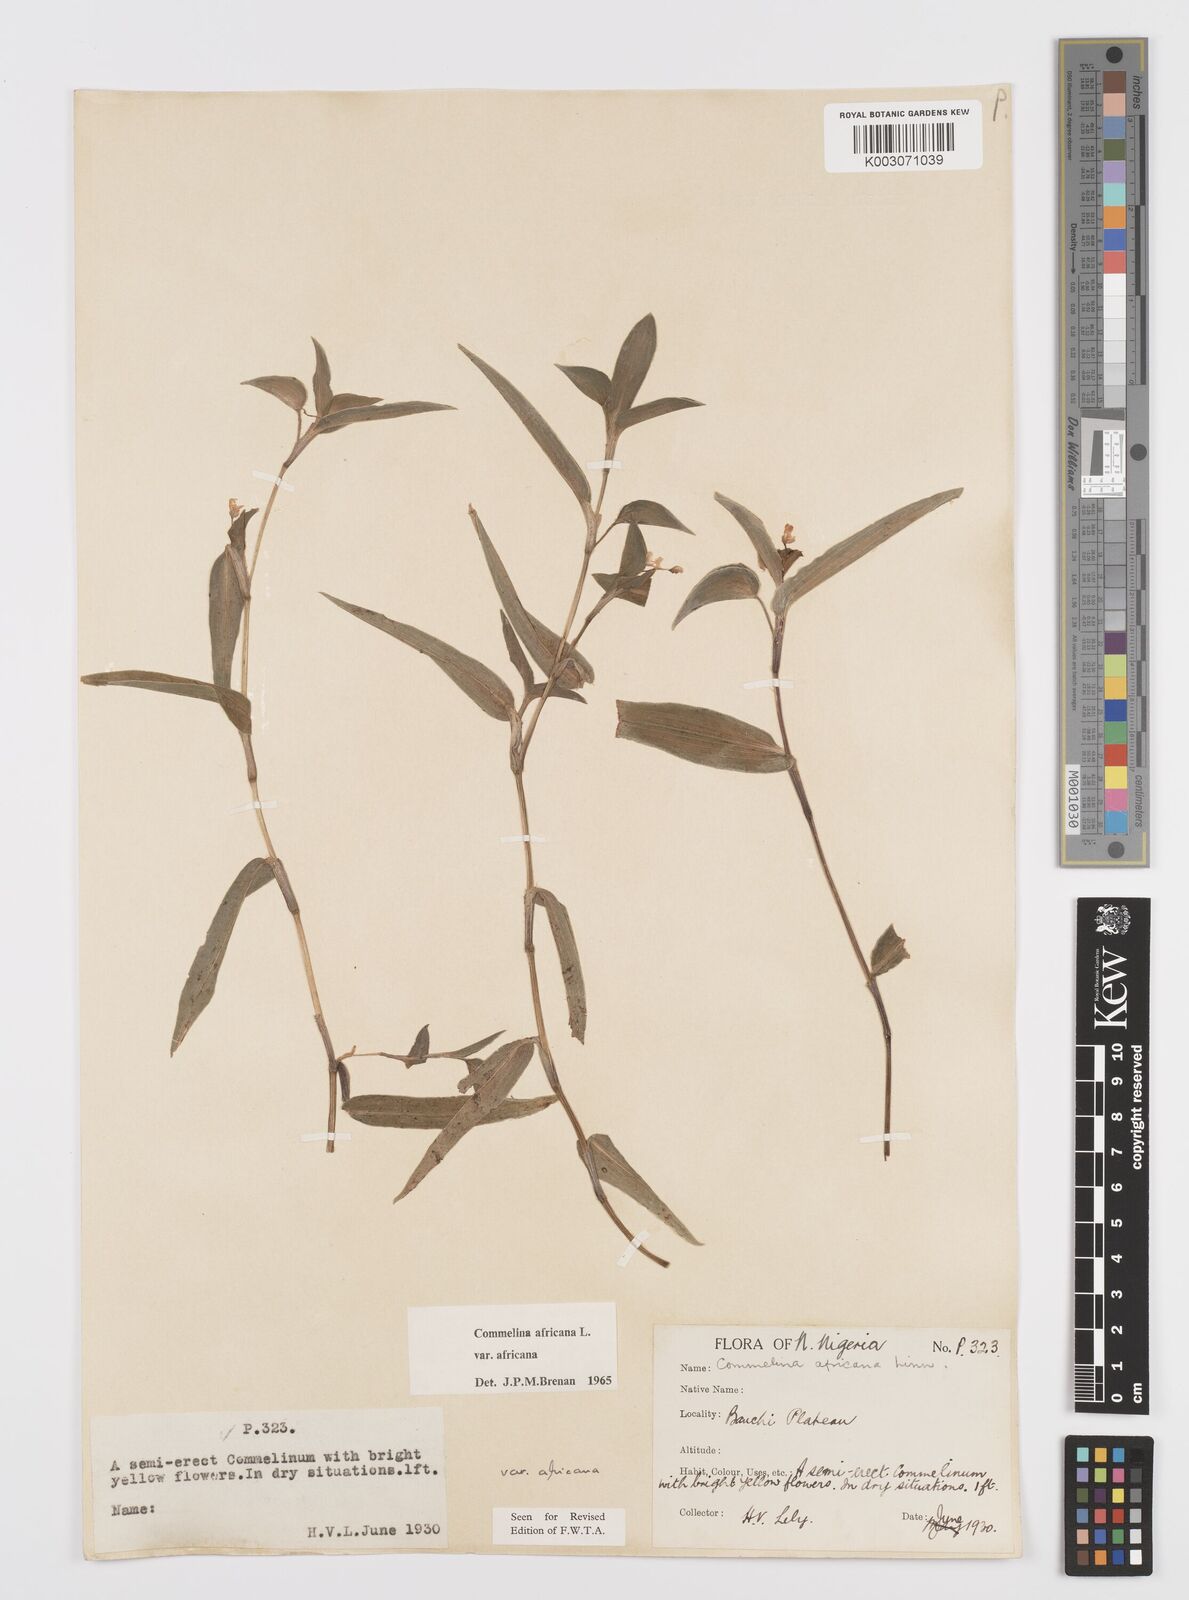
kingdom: Plantae
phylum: Tracheophyta
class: Liliopsida
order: Commelinales
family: Commelinaceae
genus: Commelina
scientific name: Commelina africana
